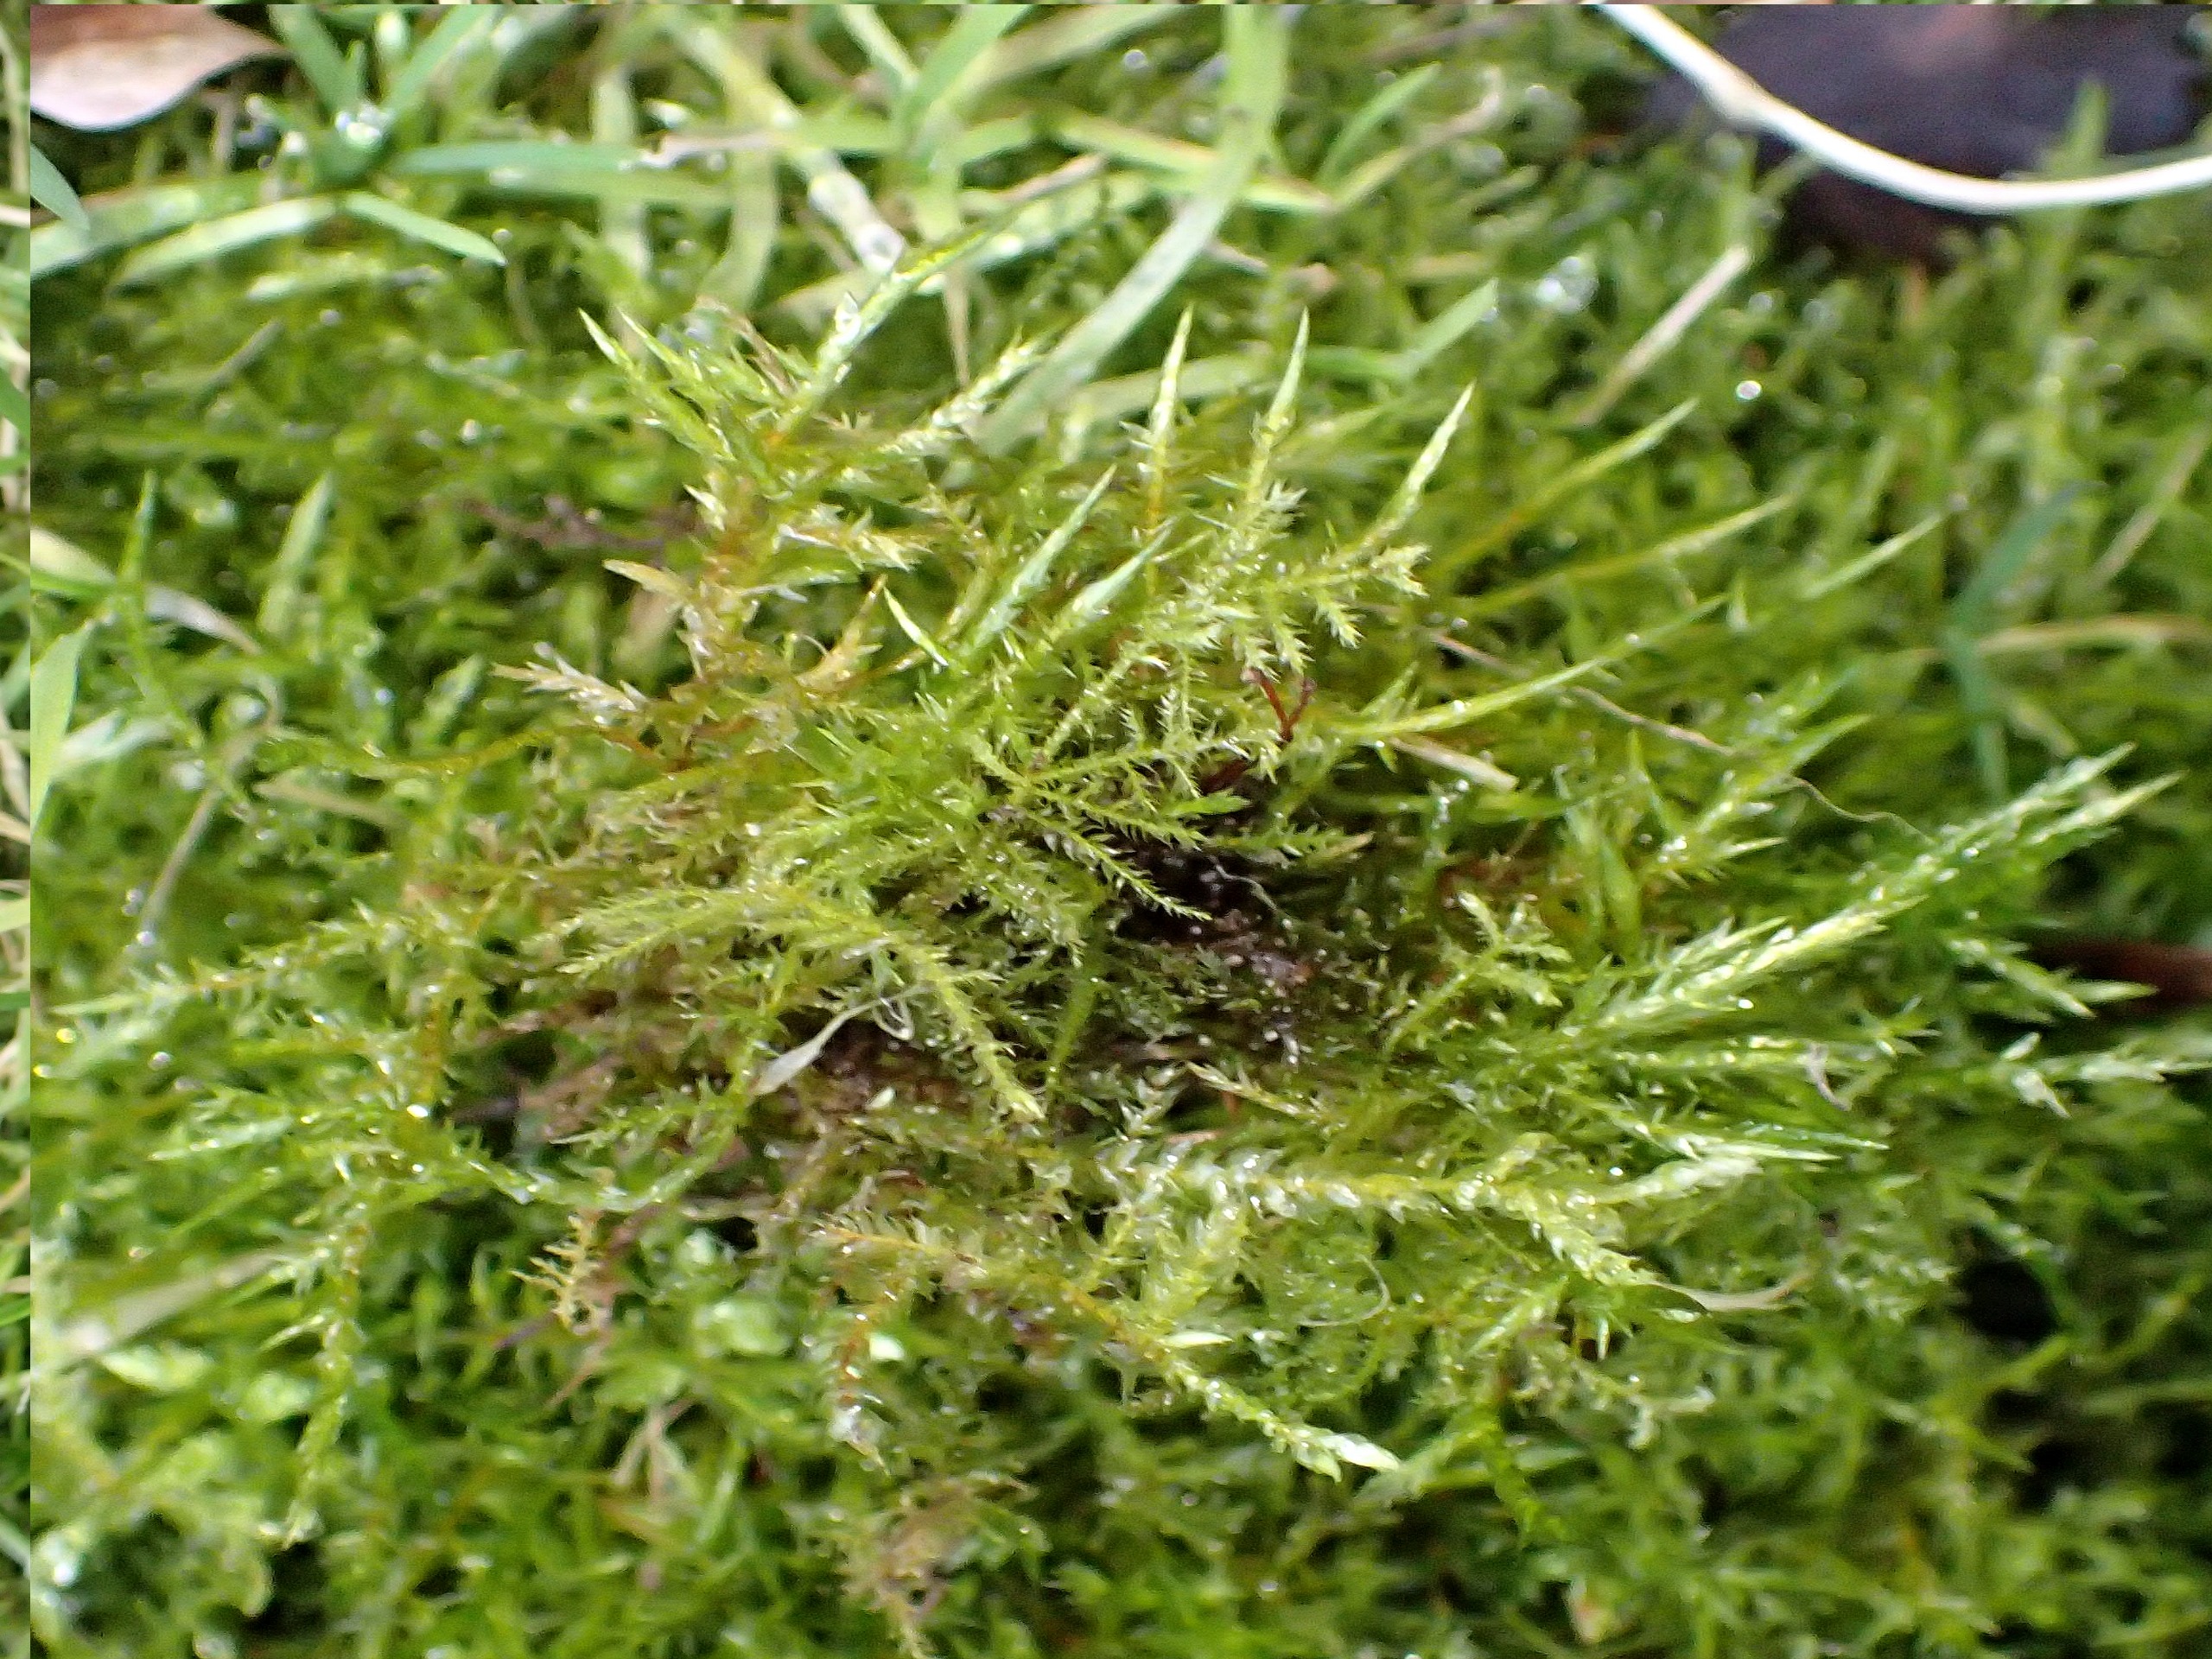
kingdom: Plantae
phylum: Bryophyta
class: Bryopsida
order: Hypnales
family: Pylaisiaceae
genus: Calliergonella
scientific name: Calliergonella cuspidata
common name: Spids spydmos
